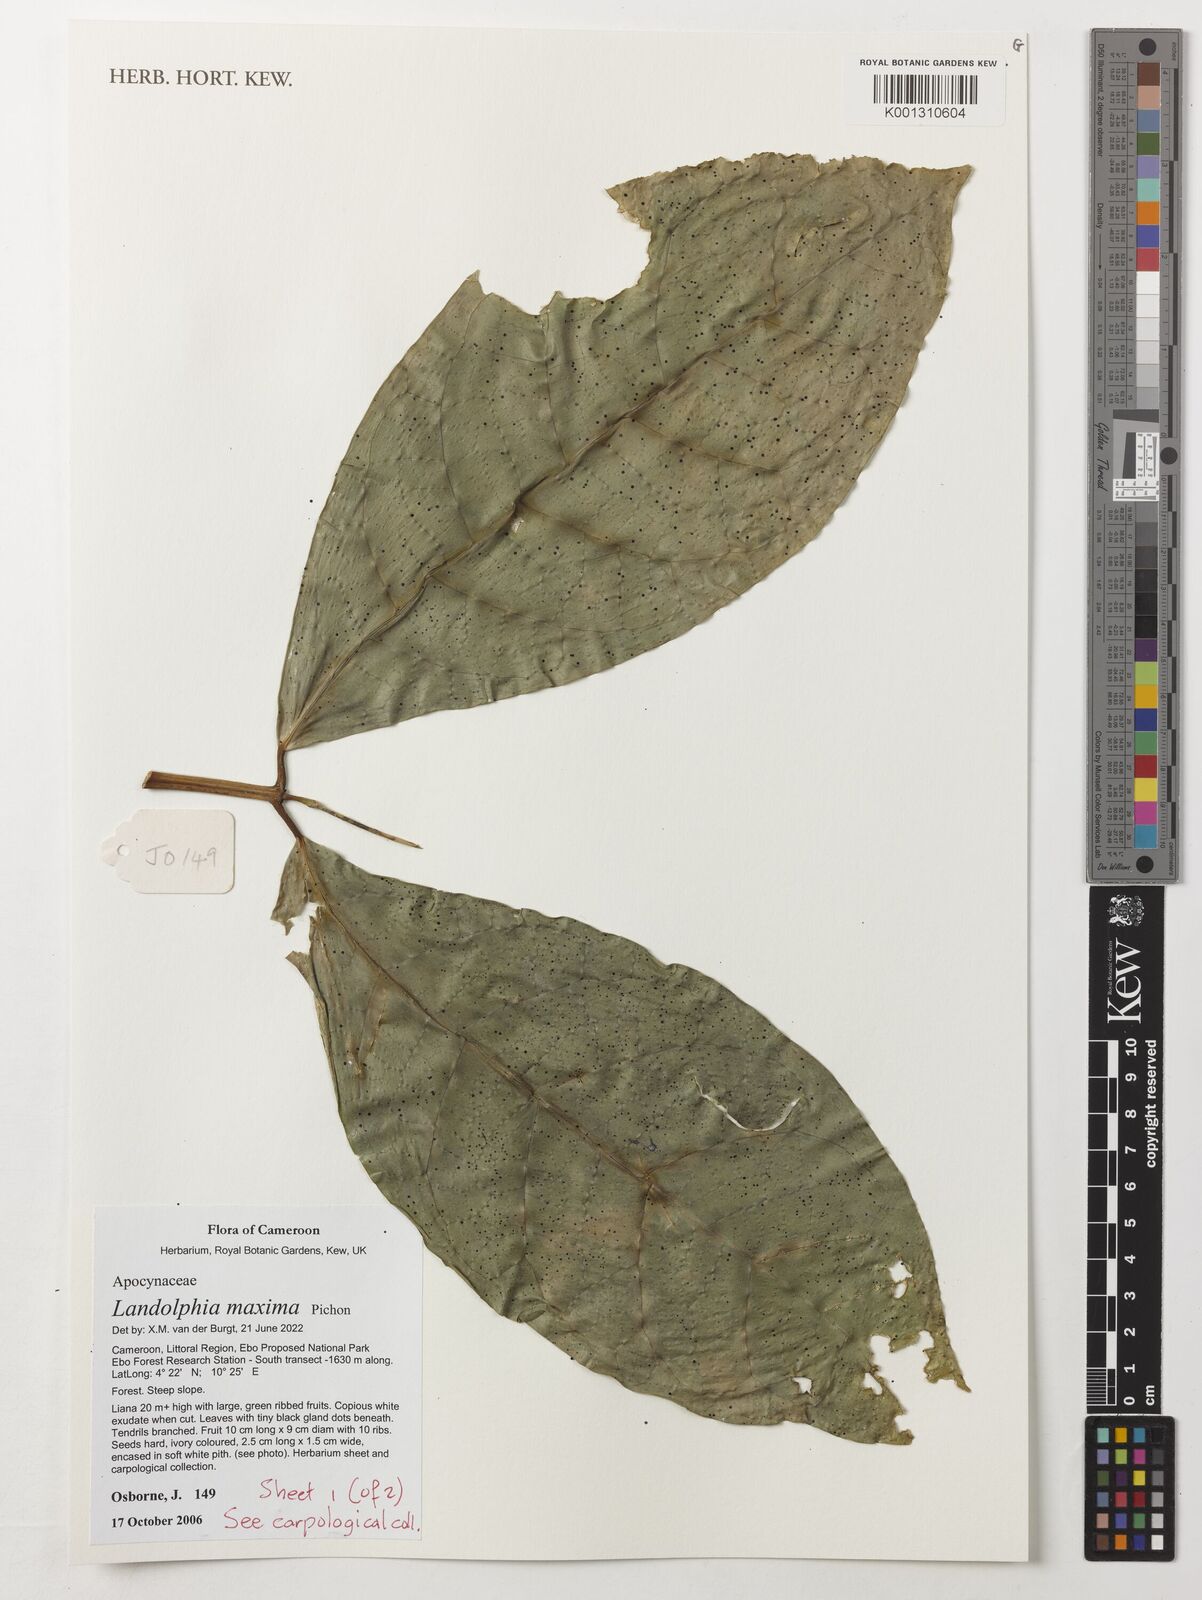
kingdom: Plantae
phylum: Tracheophyta
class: Magnoliopsida
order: Gentianales
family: Apocynaceae
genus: Landolphia
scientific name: Landolphia maxima
